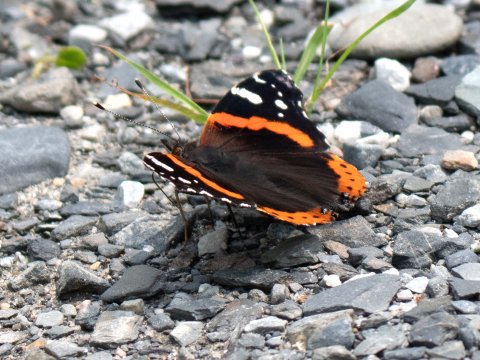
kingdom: Animalia
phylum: Arthropoda
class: Insecta
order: Lepidoptera
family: Nymphalidae
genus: Vanessa
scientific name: Vanessa atalanta
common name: Red Admiral
